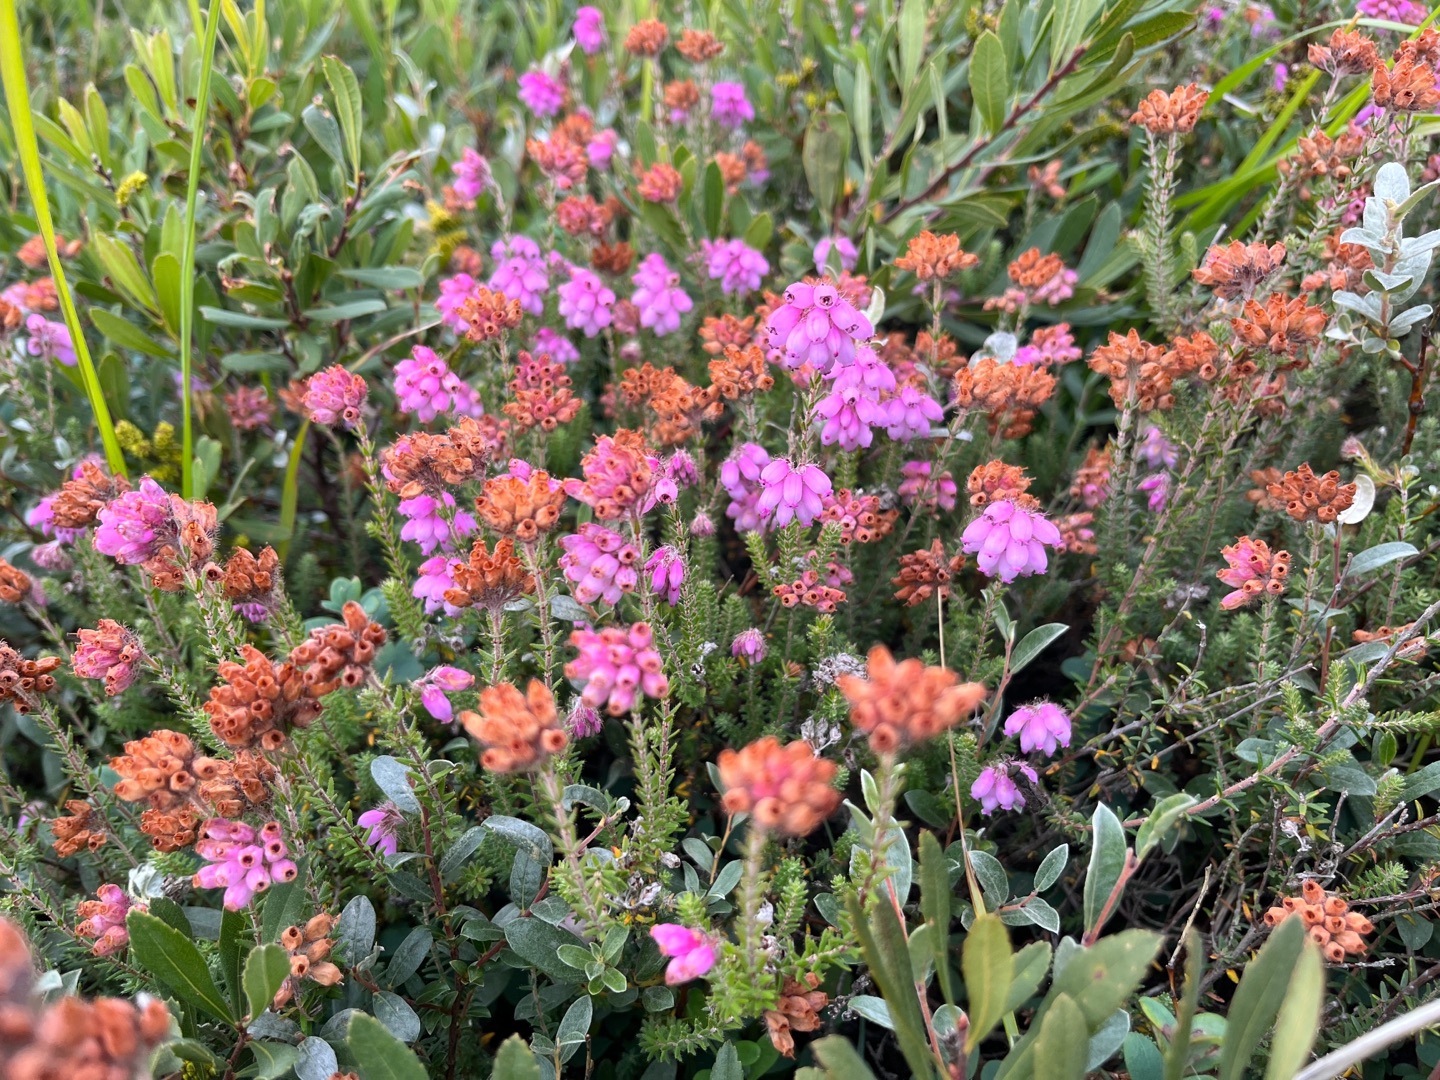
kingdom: Plantae
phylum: Tracheophyta
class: Magnoliopsida
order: Ericales
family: Ericaceae
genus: Erica
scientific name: Erica tetralix
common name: Klokkelyng
